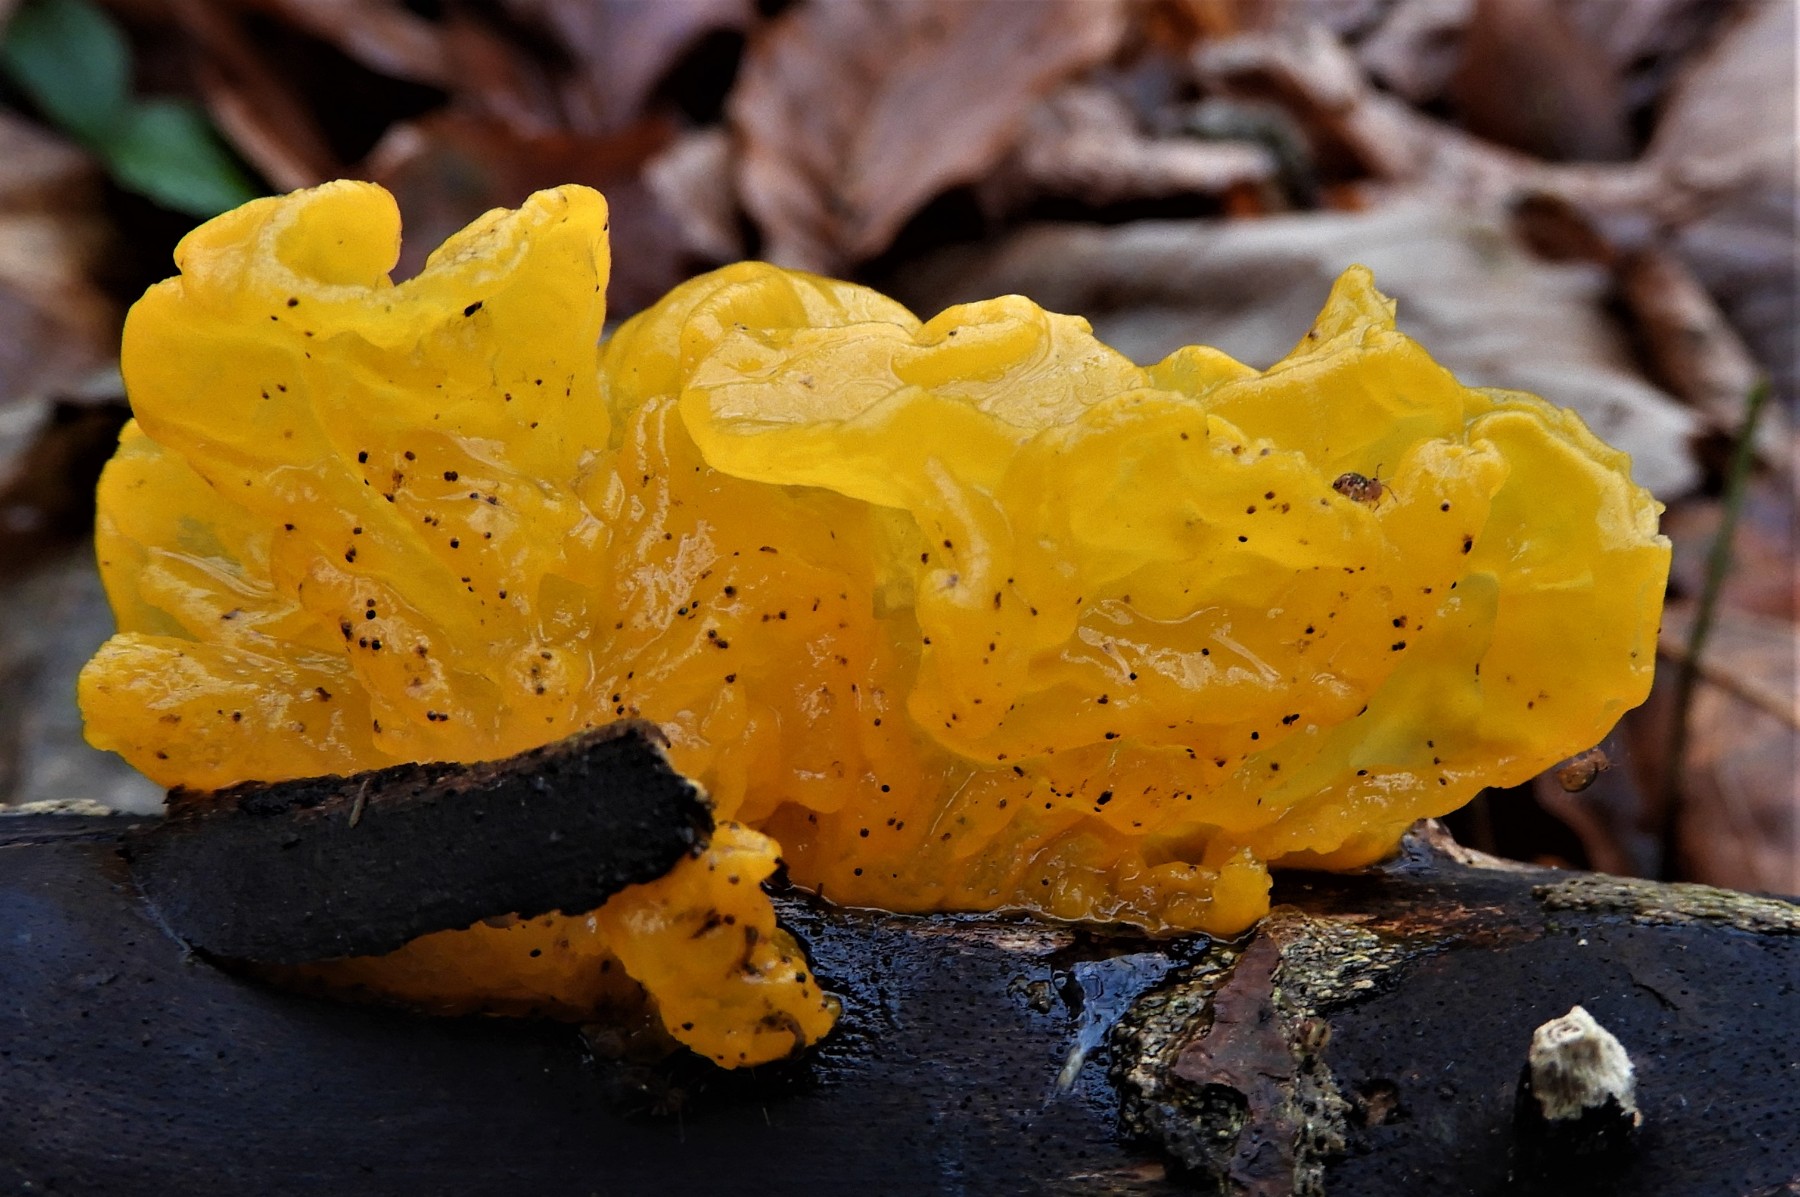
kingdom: Fungi
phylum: Basidiomycota
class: Tremellomycetes
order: Tremellales
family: Tremellaceae
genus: Tremella
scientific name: Tremella mesenterica
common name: gul bævresvamp
